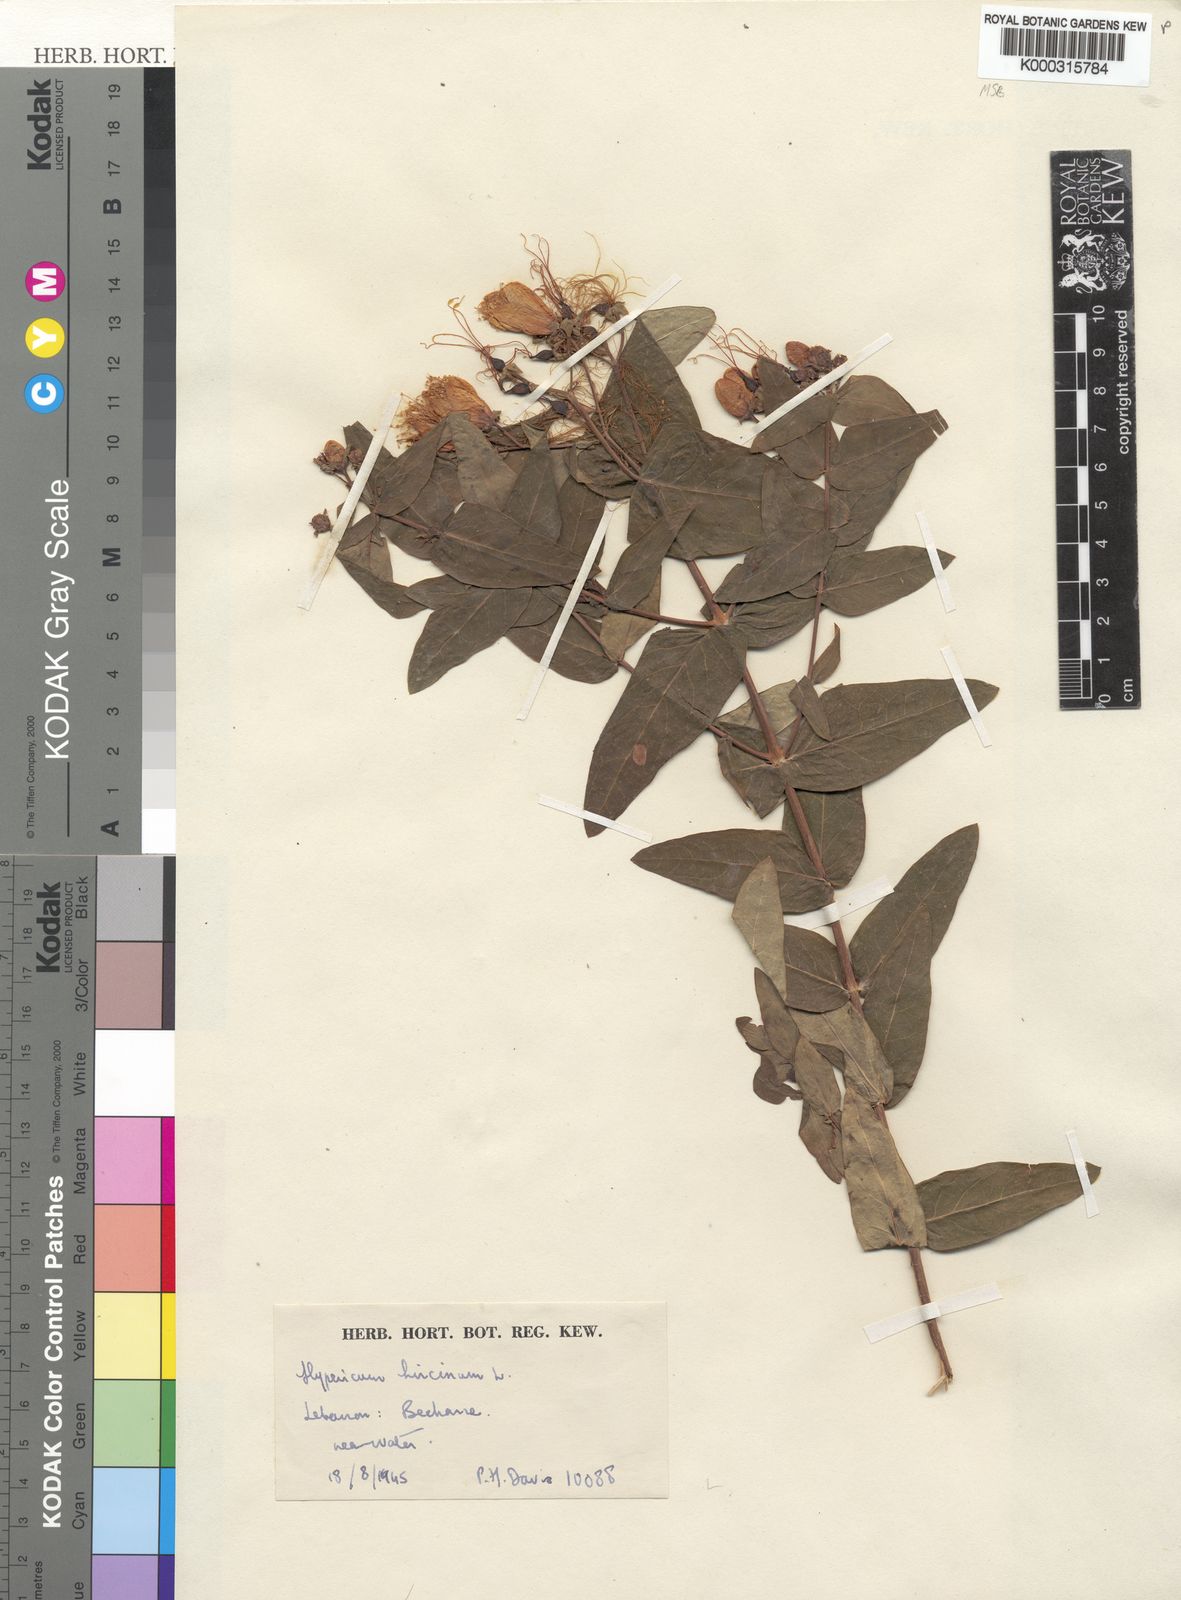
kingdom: Plantae
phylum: Tracheophyta
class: Magnoliopsida
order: Malpighiales
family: Hypericaceae
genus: Hypericum
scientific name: Hypericum hircinum
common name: Stinking tutsan
